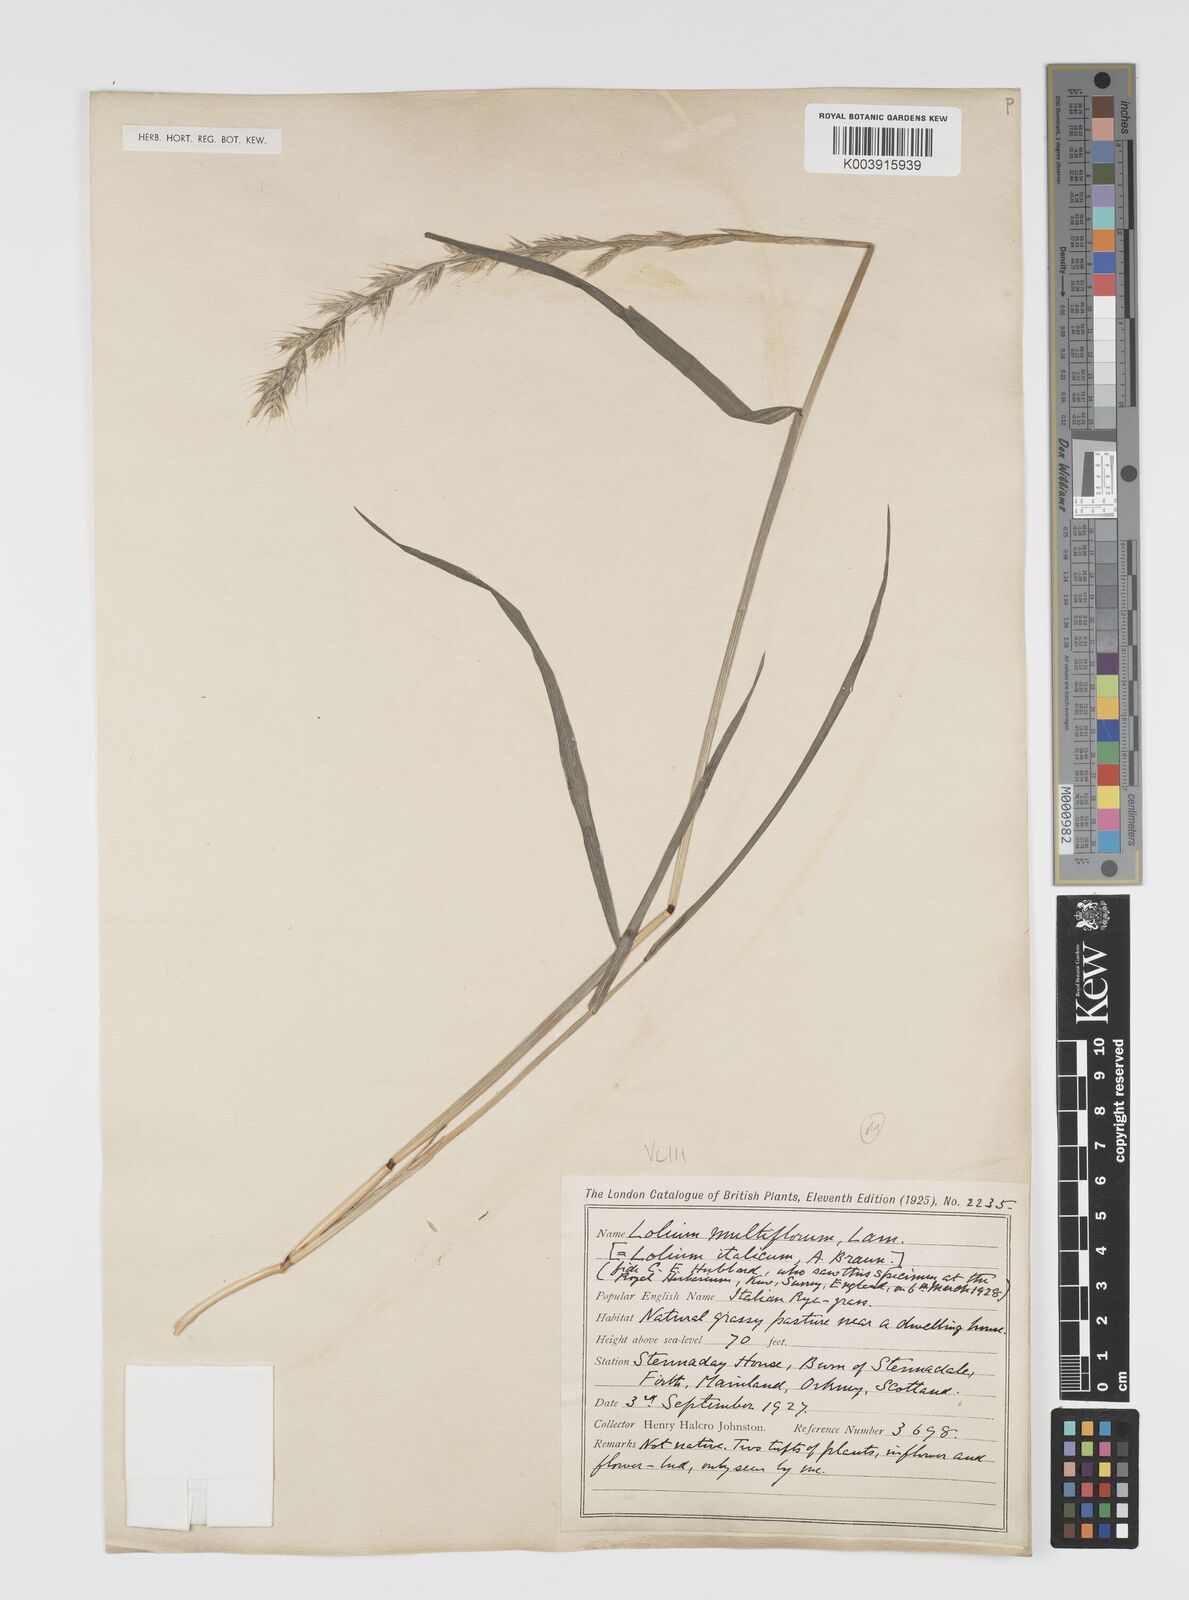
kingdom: Plantae
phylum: Tracheophyta
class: Liliopsida
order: Poales
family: Poaceae
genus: Lolium
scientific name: Lolium multiflorum
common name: Annual ryegrass
